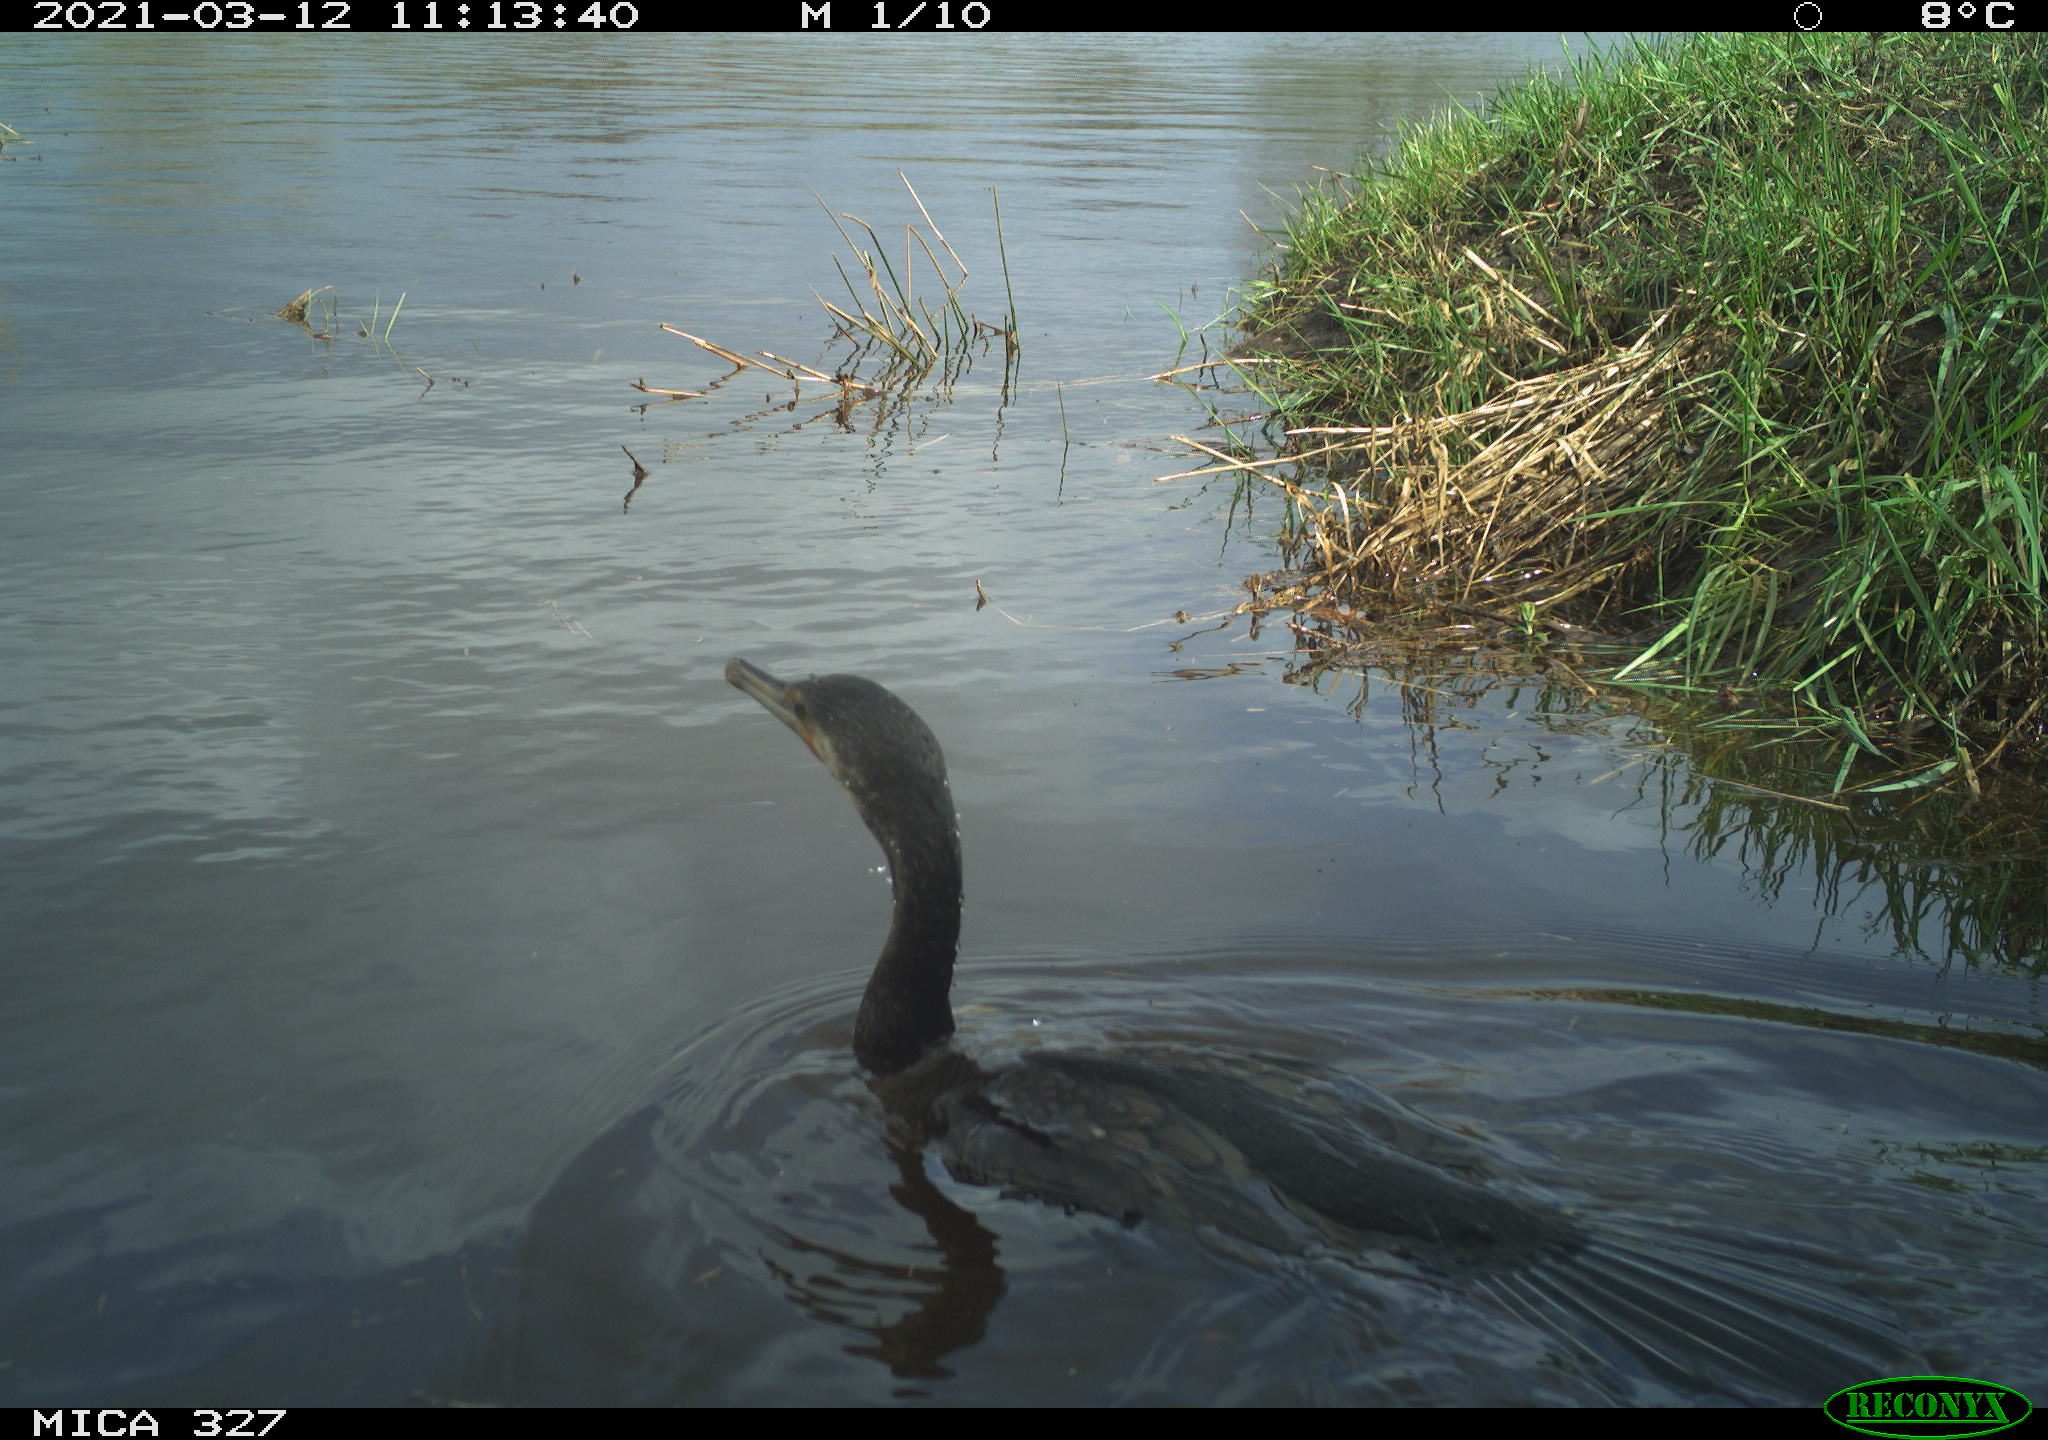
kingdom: Animalia
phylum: Chordata
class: Aves
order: Suliformes
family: Phalacrocoracidae
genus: Phalacrocorax
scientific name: Phalacrocorax carbo
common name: Great cormorant
